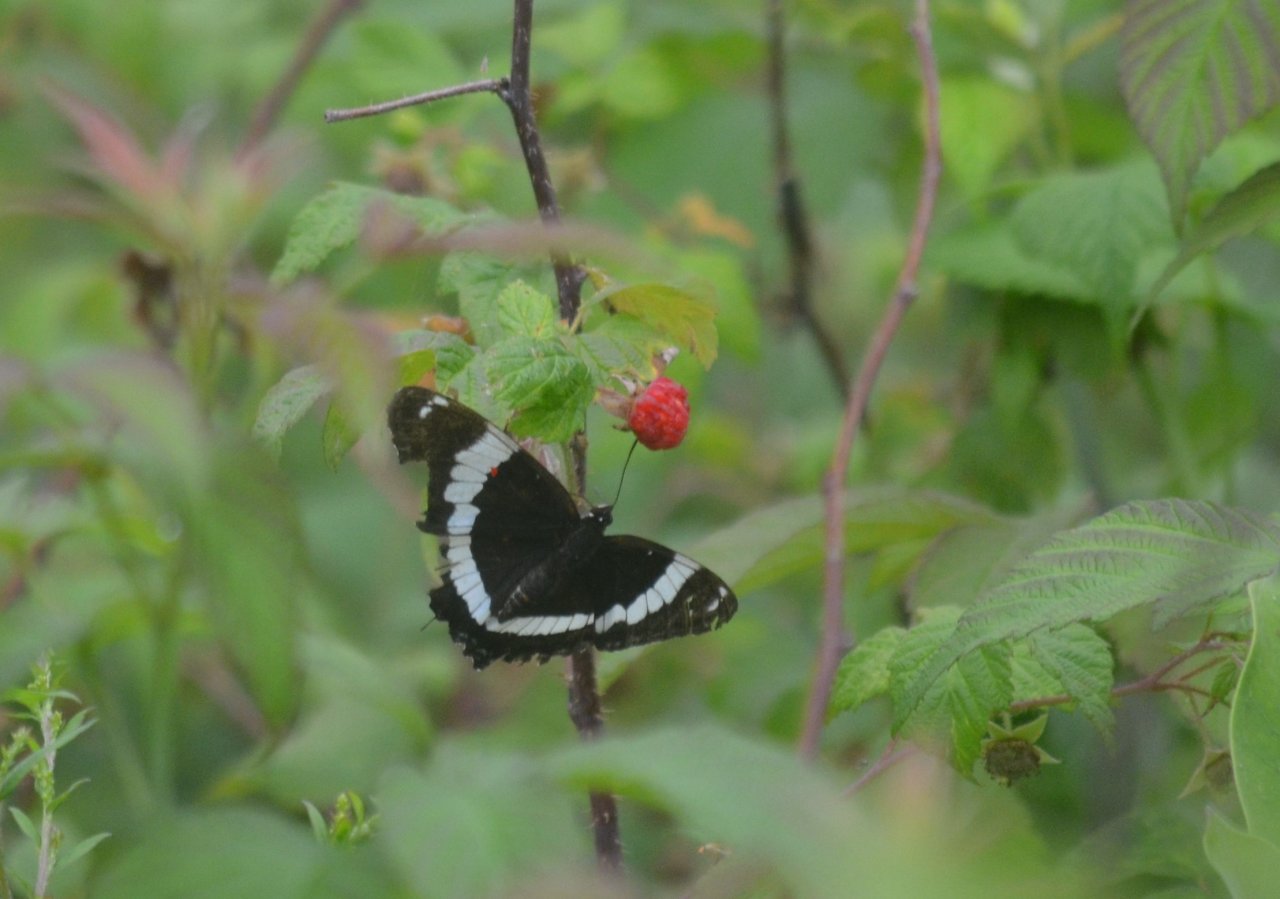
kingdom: Animalia
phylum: Arthropoda
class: Insecta
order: Lepidoptera
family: Nymphalidae
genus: Limenitis
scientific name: Limenitis arthemis
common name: Red-spotted Admiral
